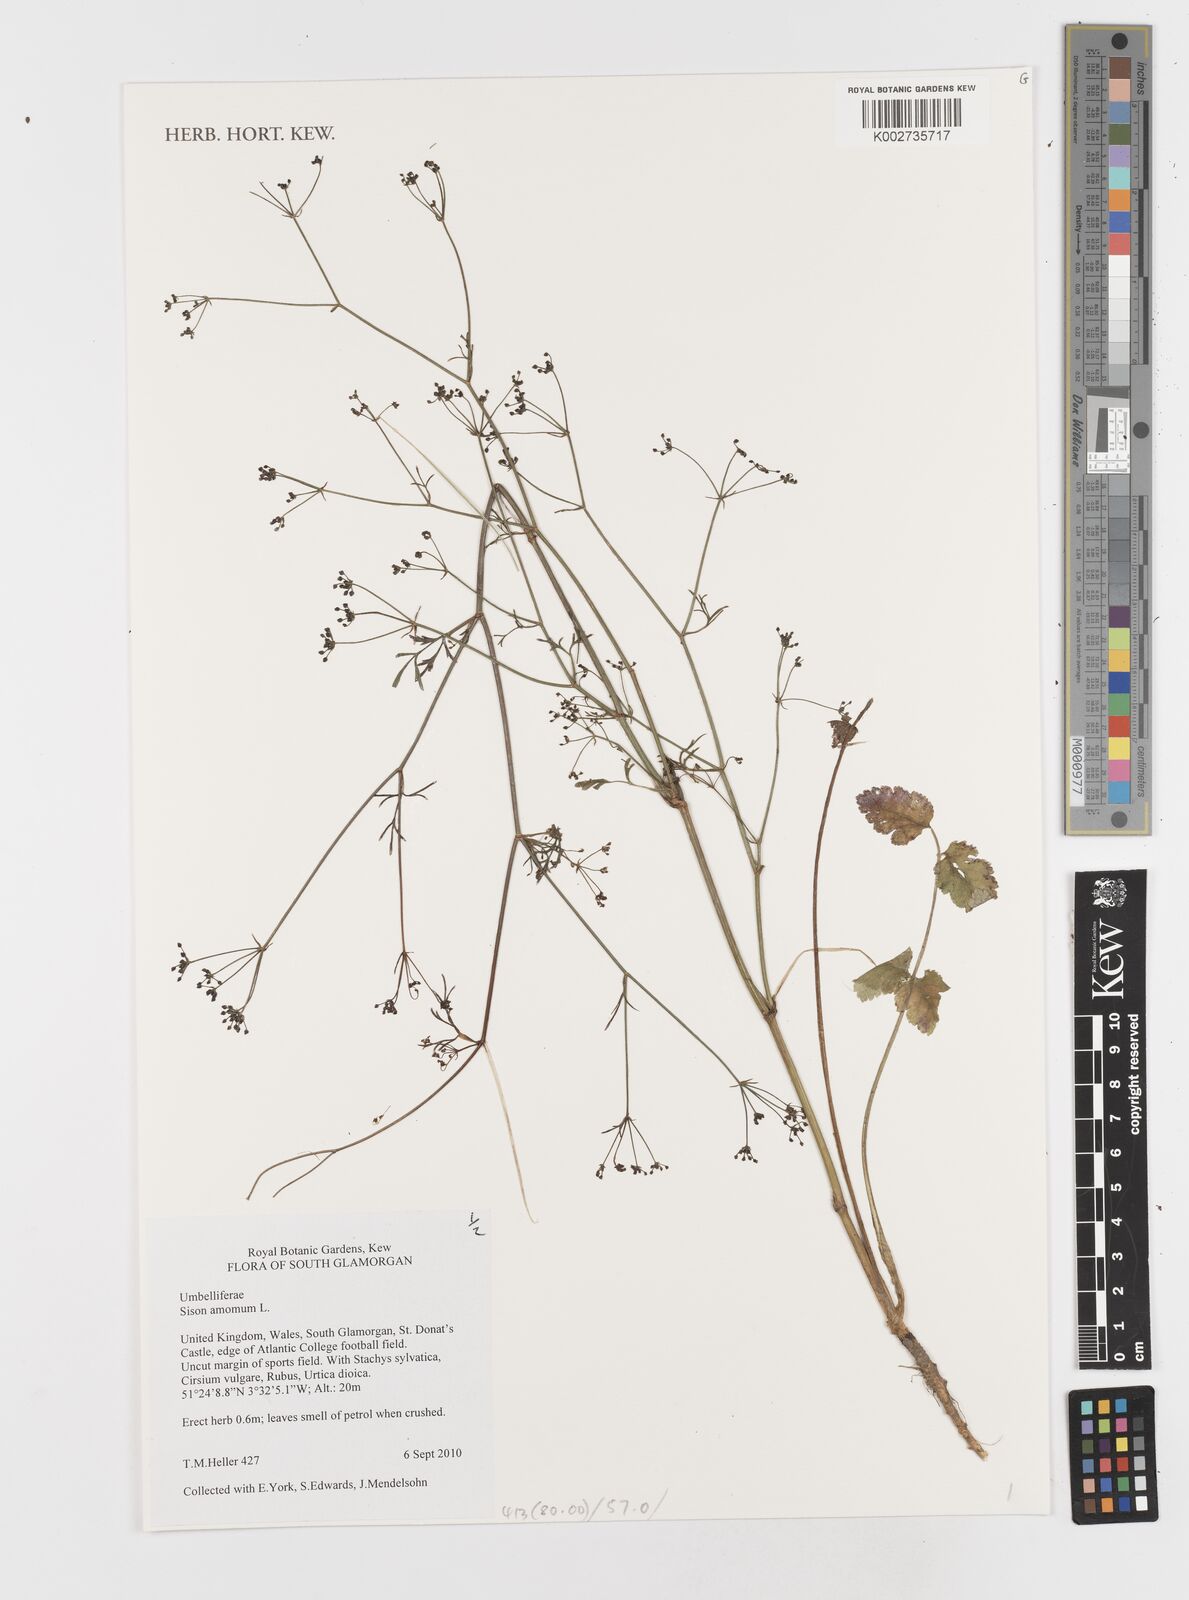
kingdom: Plantae
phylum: Tracheophyta
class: Magnoliopsida
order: Apiales
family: Apiaceae
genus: Sison
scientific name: Sison amomum
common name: Stone-parsley
